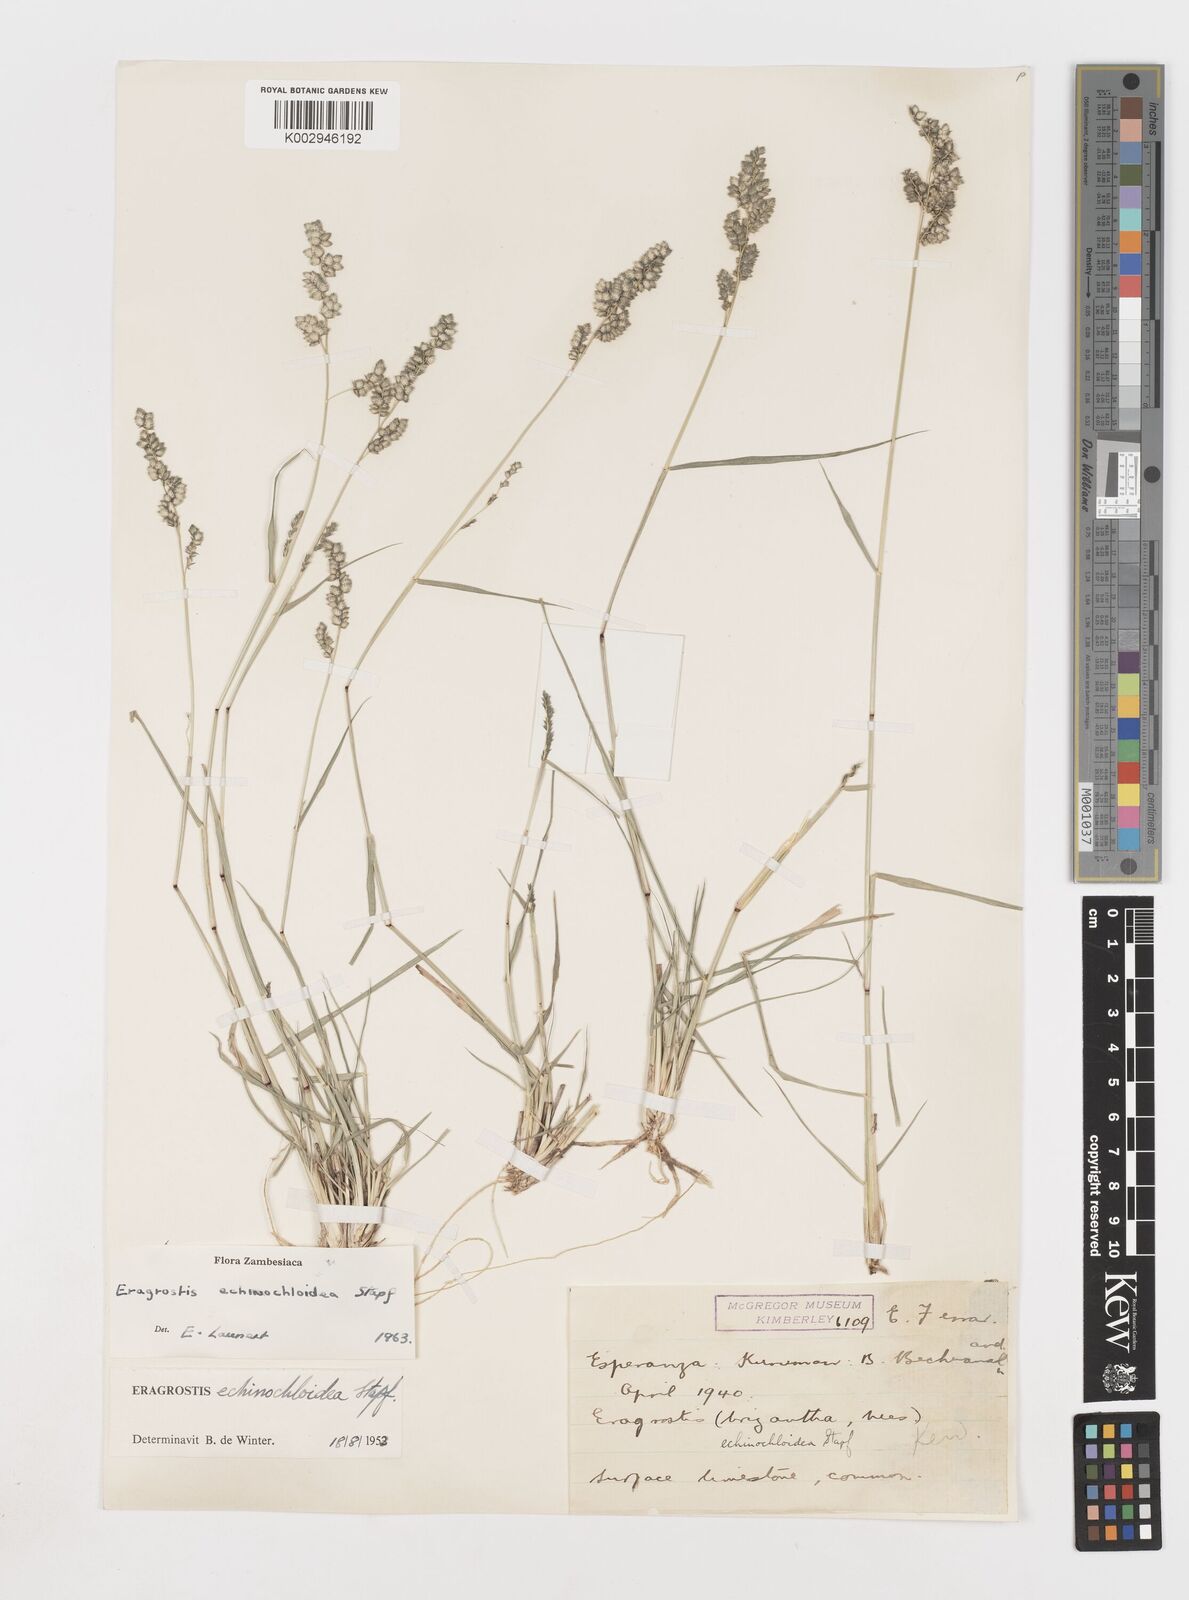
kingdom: Plantae
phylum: Tracheophyta
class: Liliopsida
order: Poales
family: Poaceae
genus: Eragrostis
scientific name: Eragrostis echinochloidea
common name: African lovegrass
